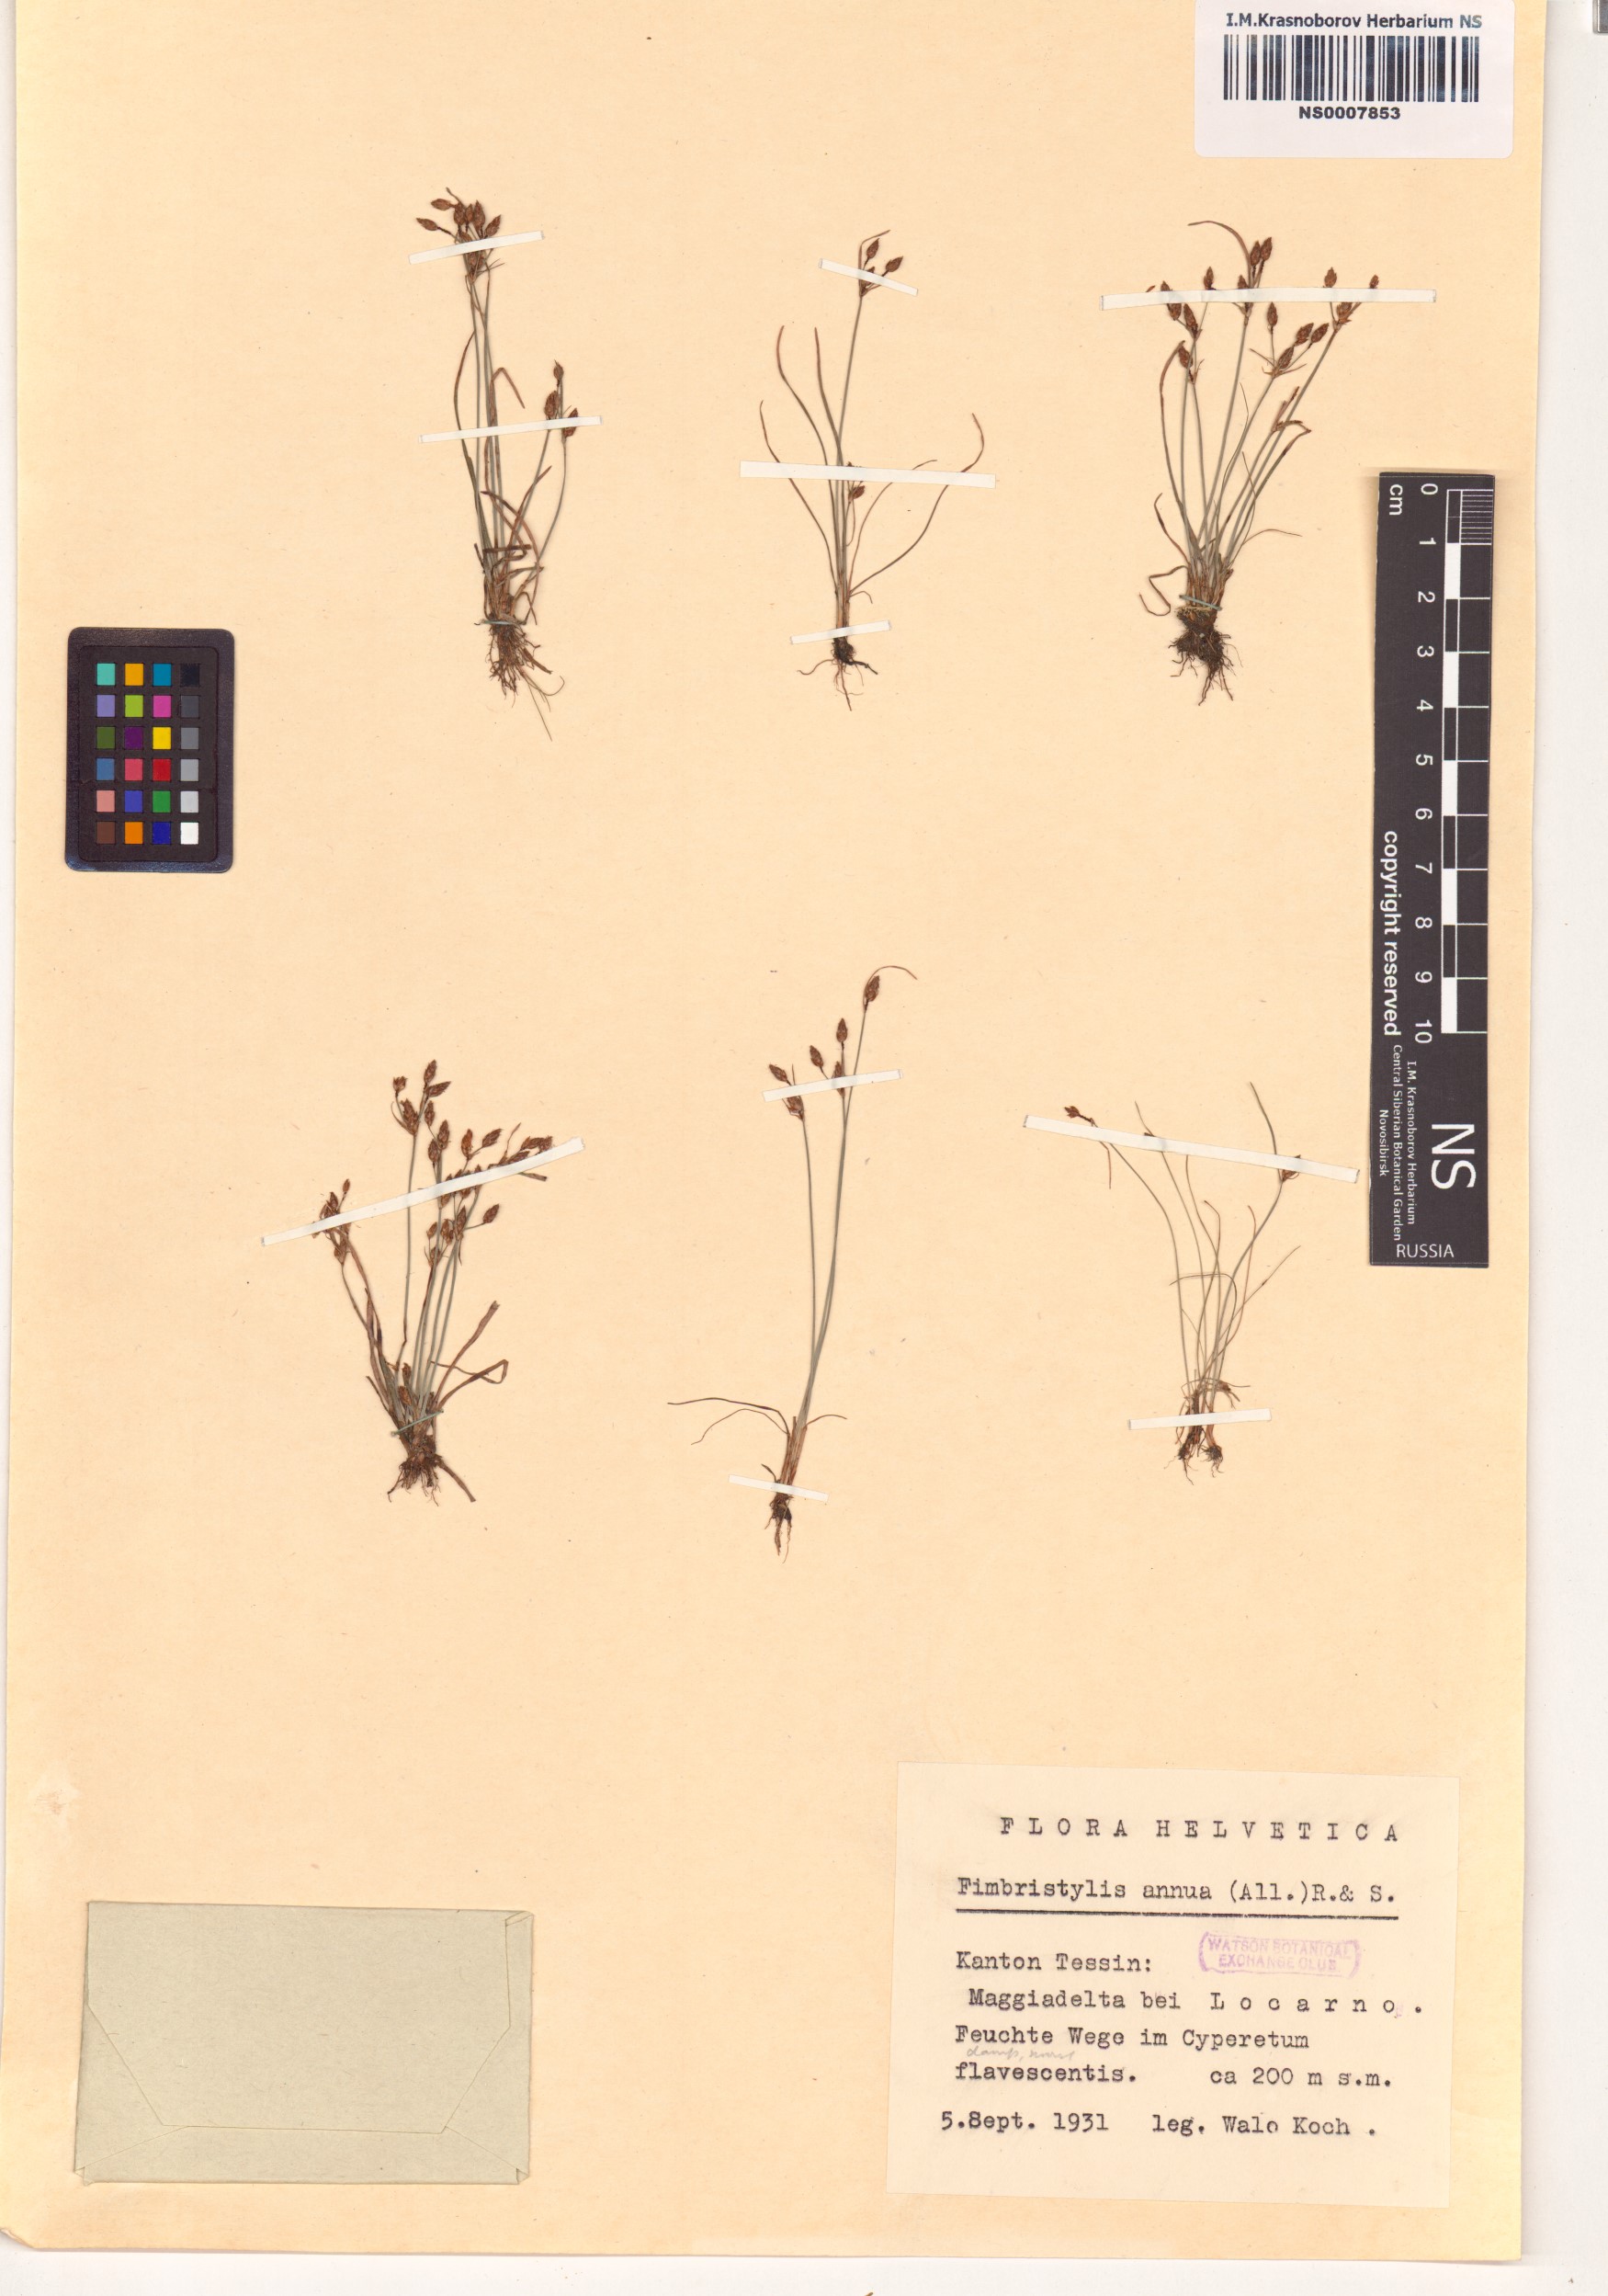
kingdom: Plantae
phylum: Tracheophyta
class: Liliopsida
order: Poales
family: Cyperaceae
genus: Fimbristylis
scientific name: Fimbristylis dichotoma
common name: Forked fimbry
